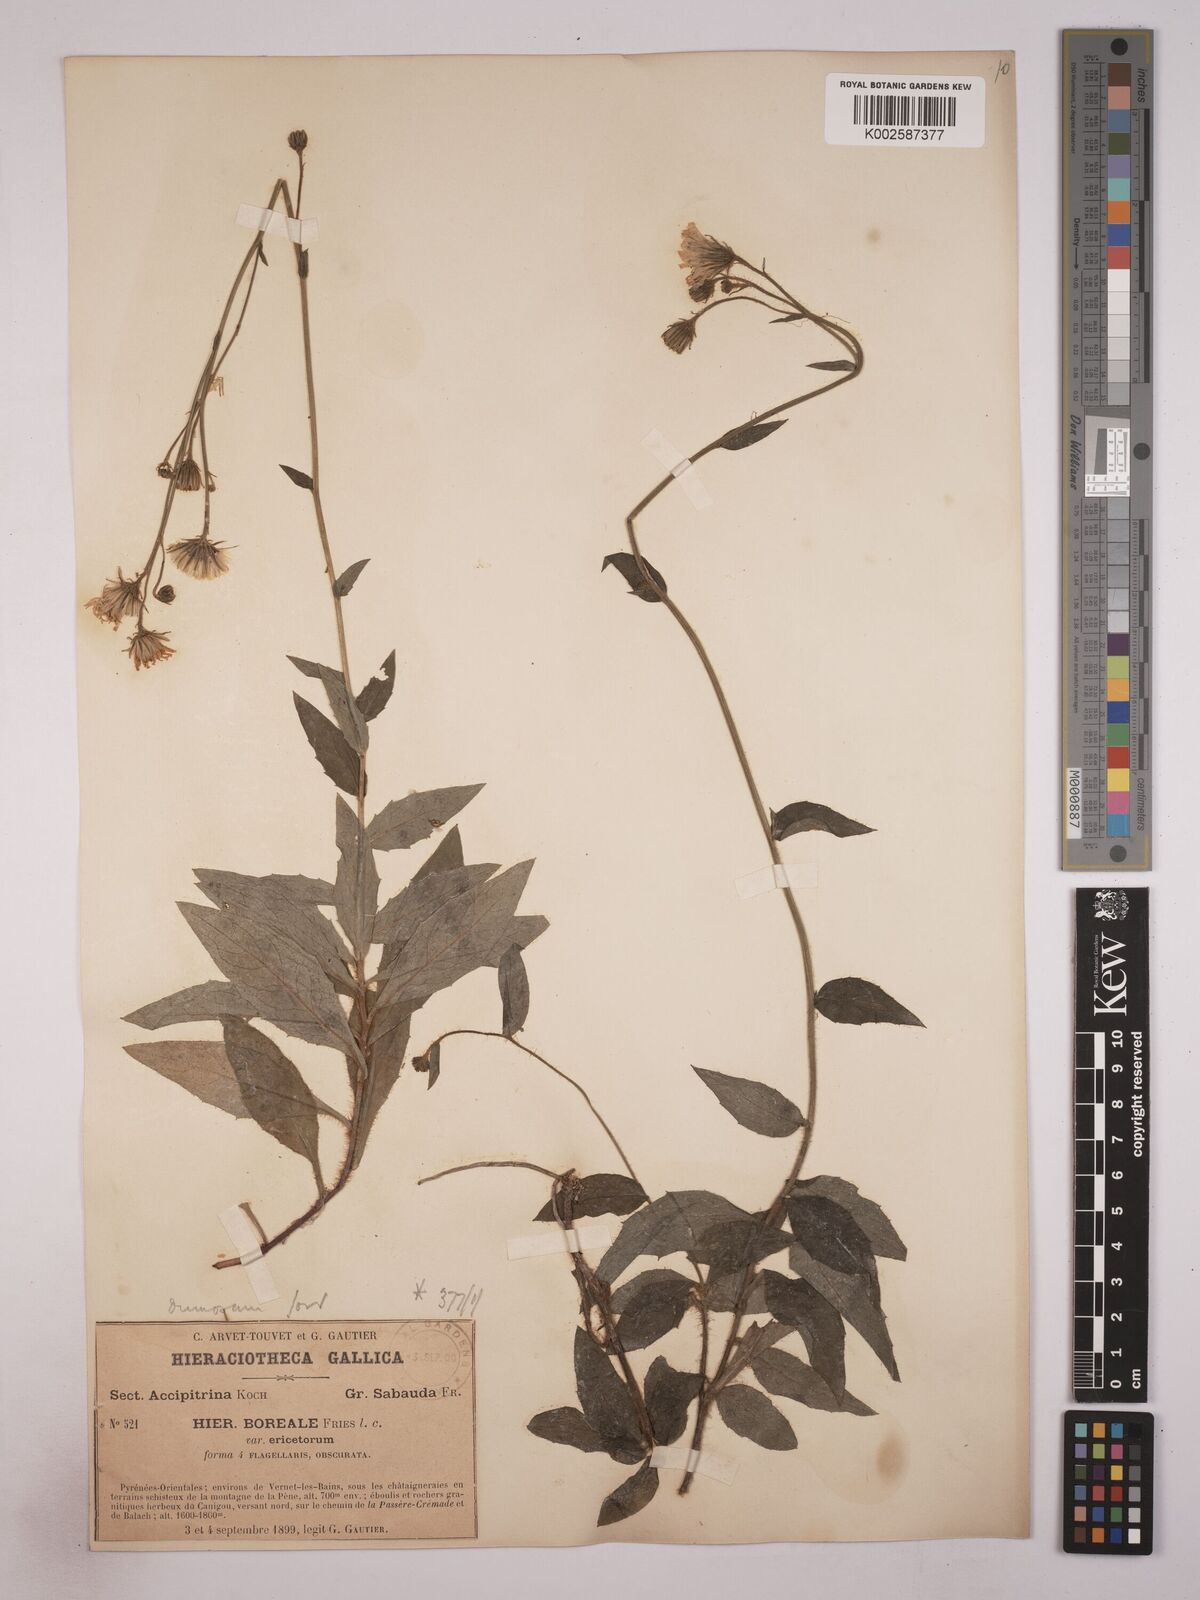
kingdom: Plantae
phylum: Tracheophyta
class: Magnoliopsida
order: Asterales
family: Asteraceae
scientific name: Asteraceae
